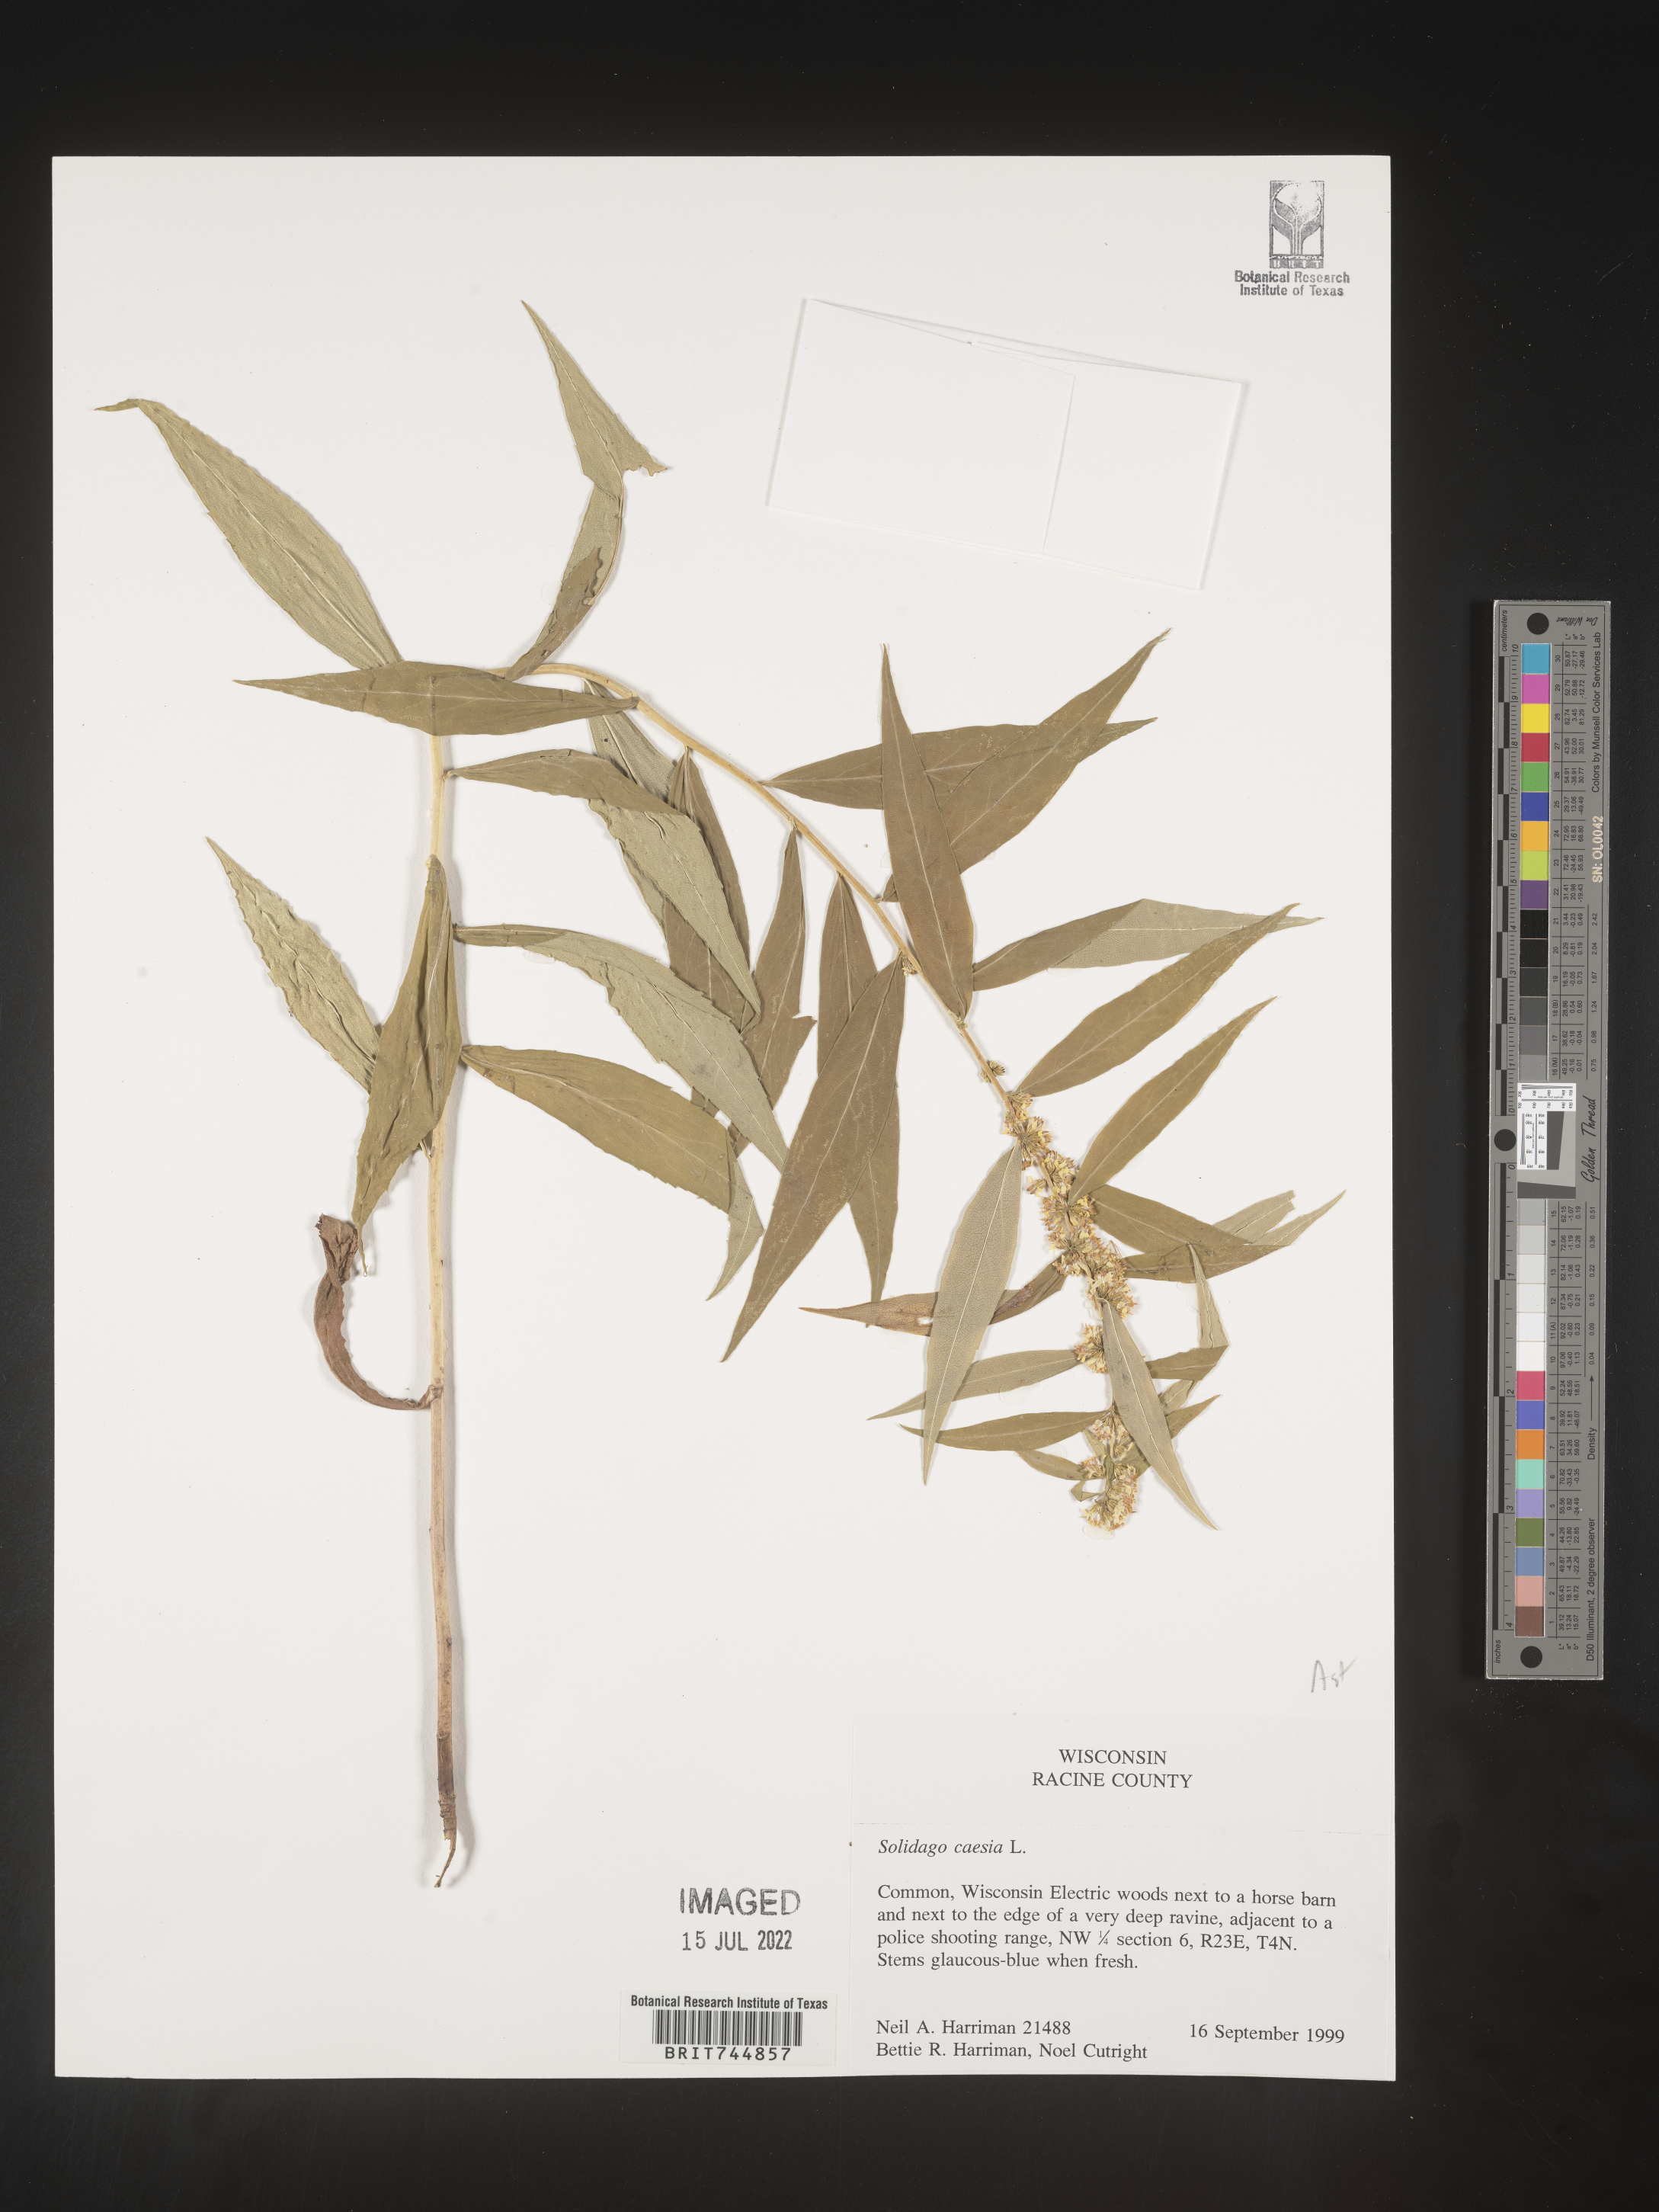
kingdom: Plantae
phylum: Tracheophyta
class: Magnoliopsida
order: Asterales
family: Asteraceae
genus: Solidago
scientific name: Solidago caesia
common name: Woodland goldenrod
